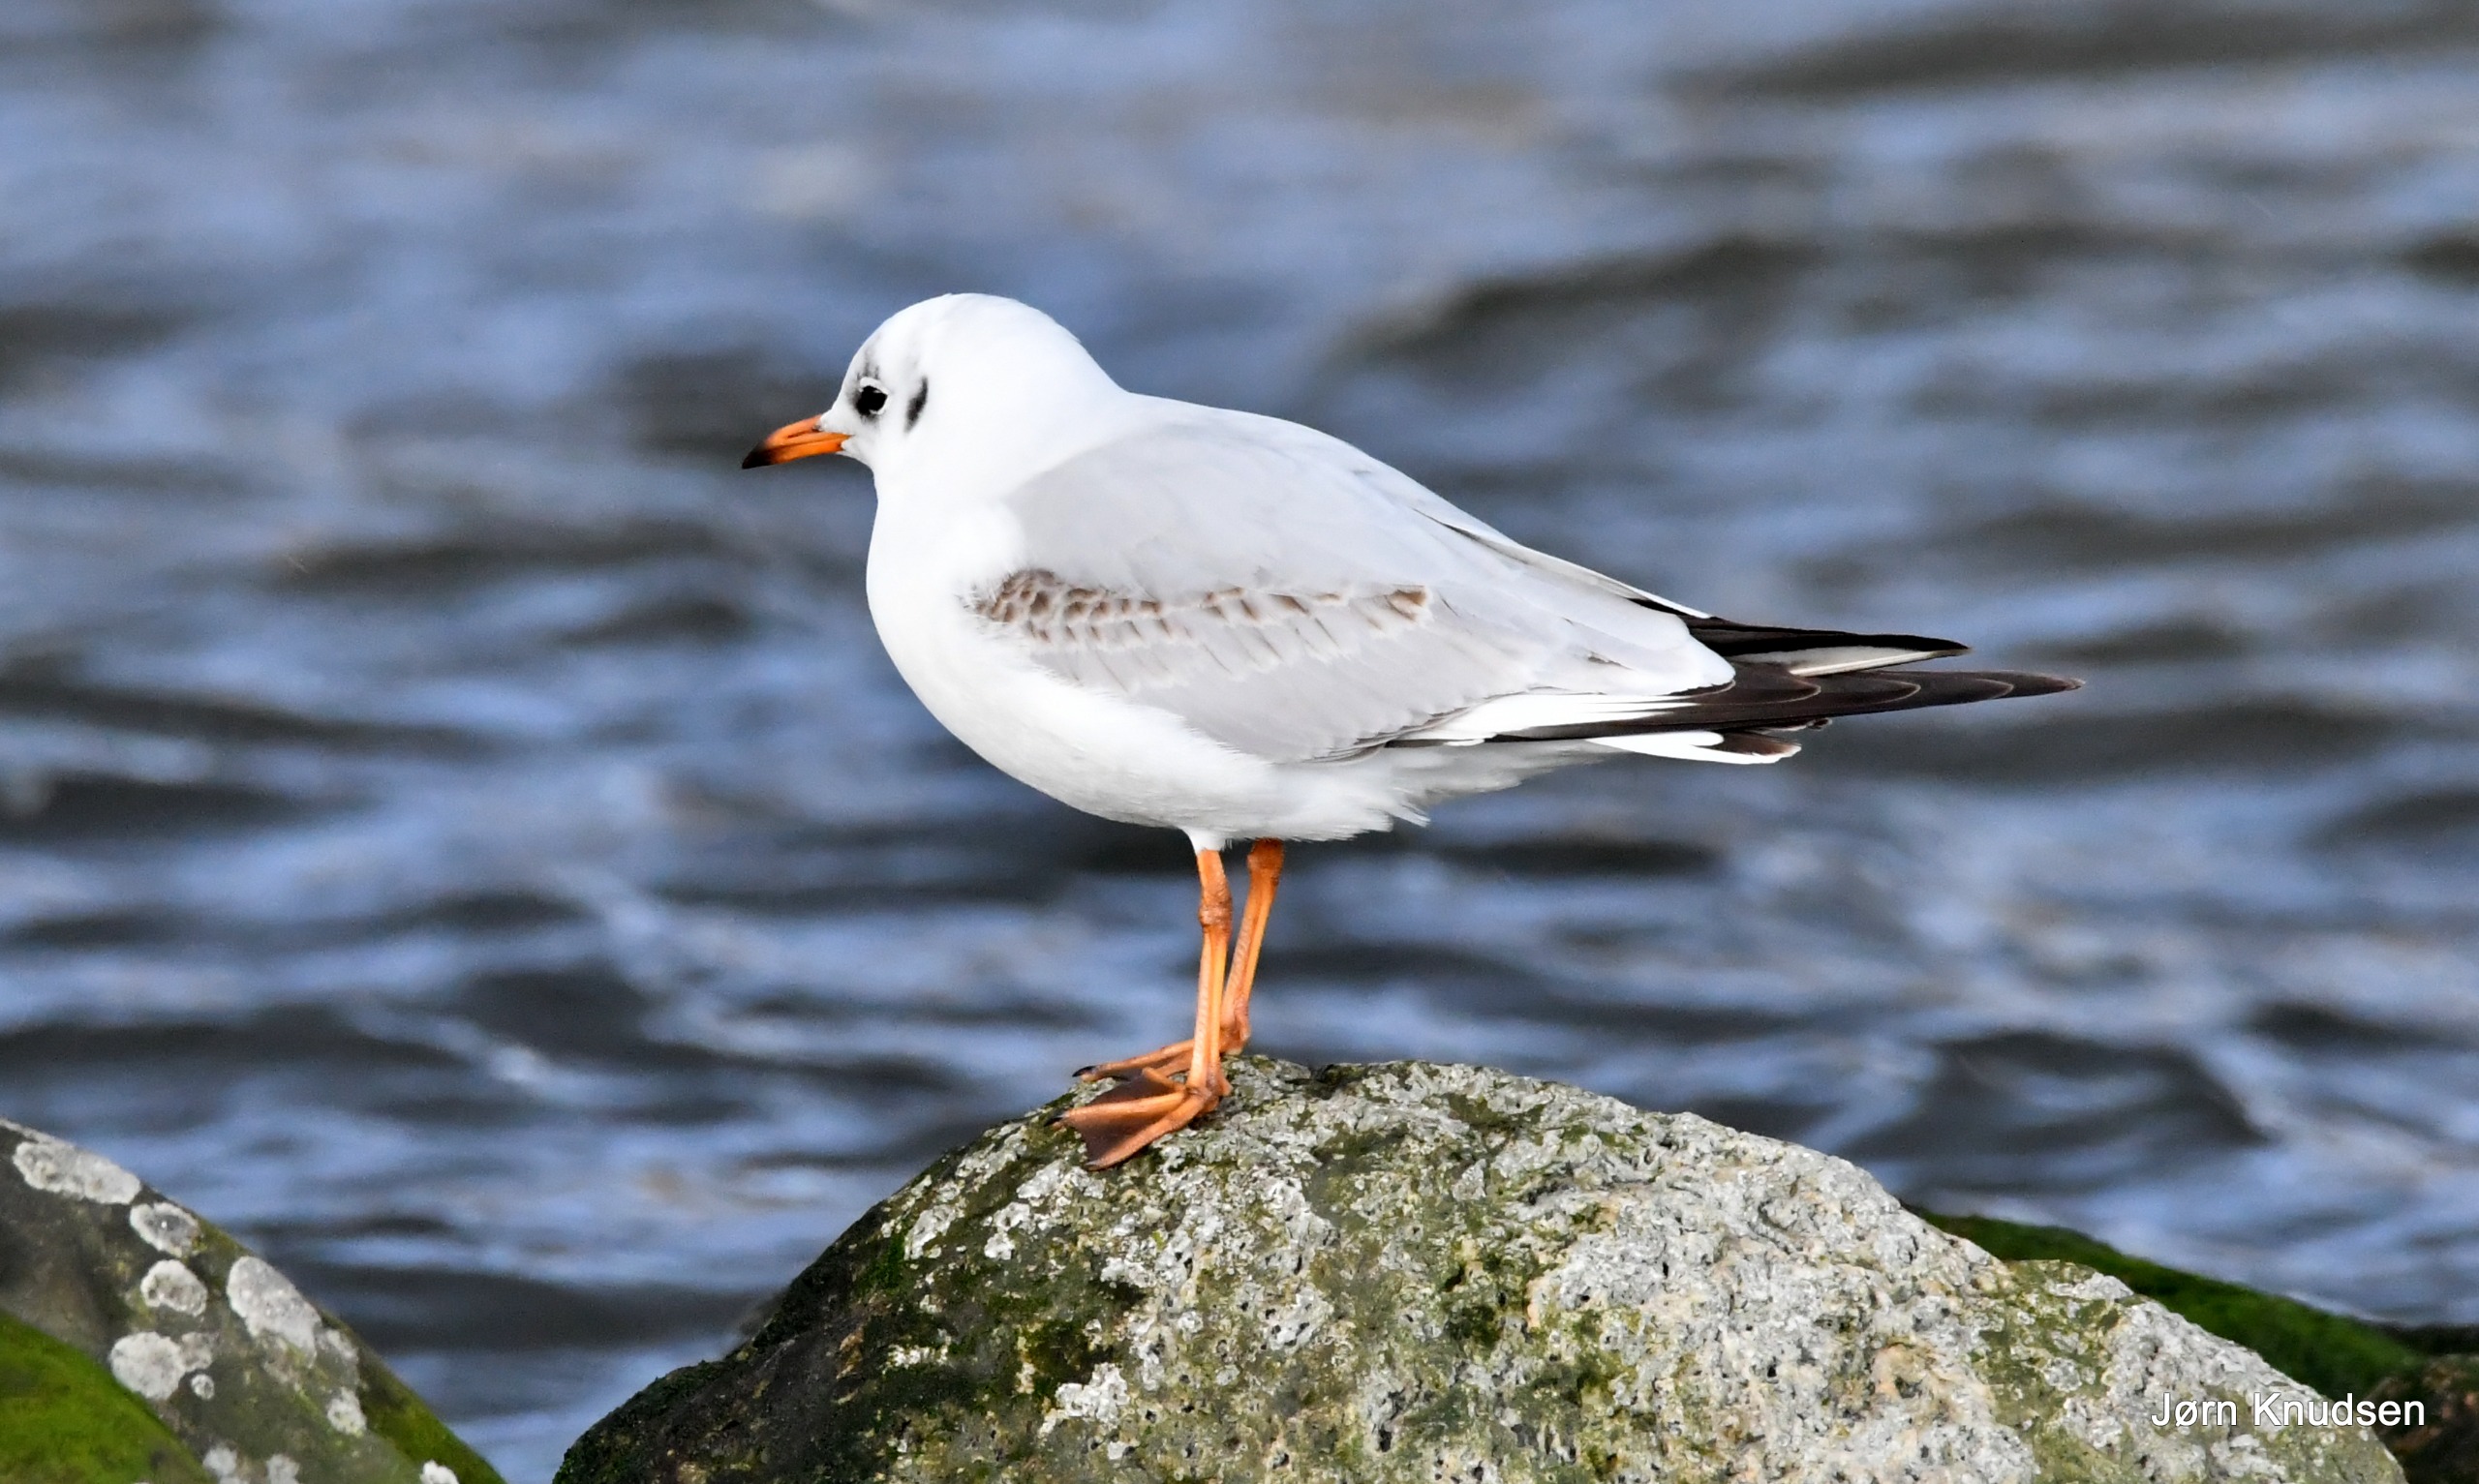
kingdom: Animalia
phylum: Chordata
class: Aves
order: Charadriiformes
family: Laridae
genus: Chroicocephalus
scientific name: Chroicocephalus ridibundus
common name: Hættemåge
